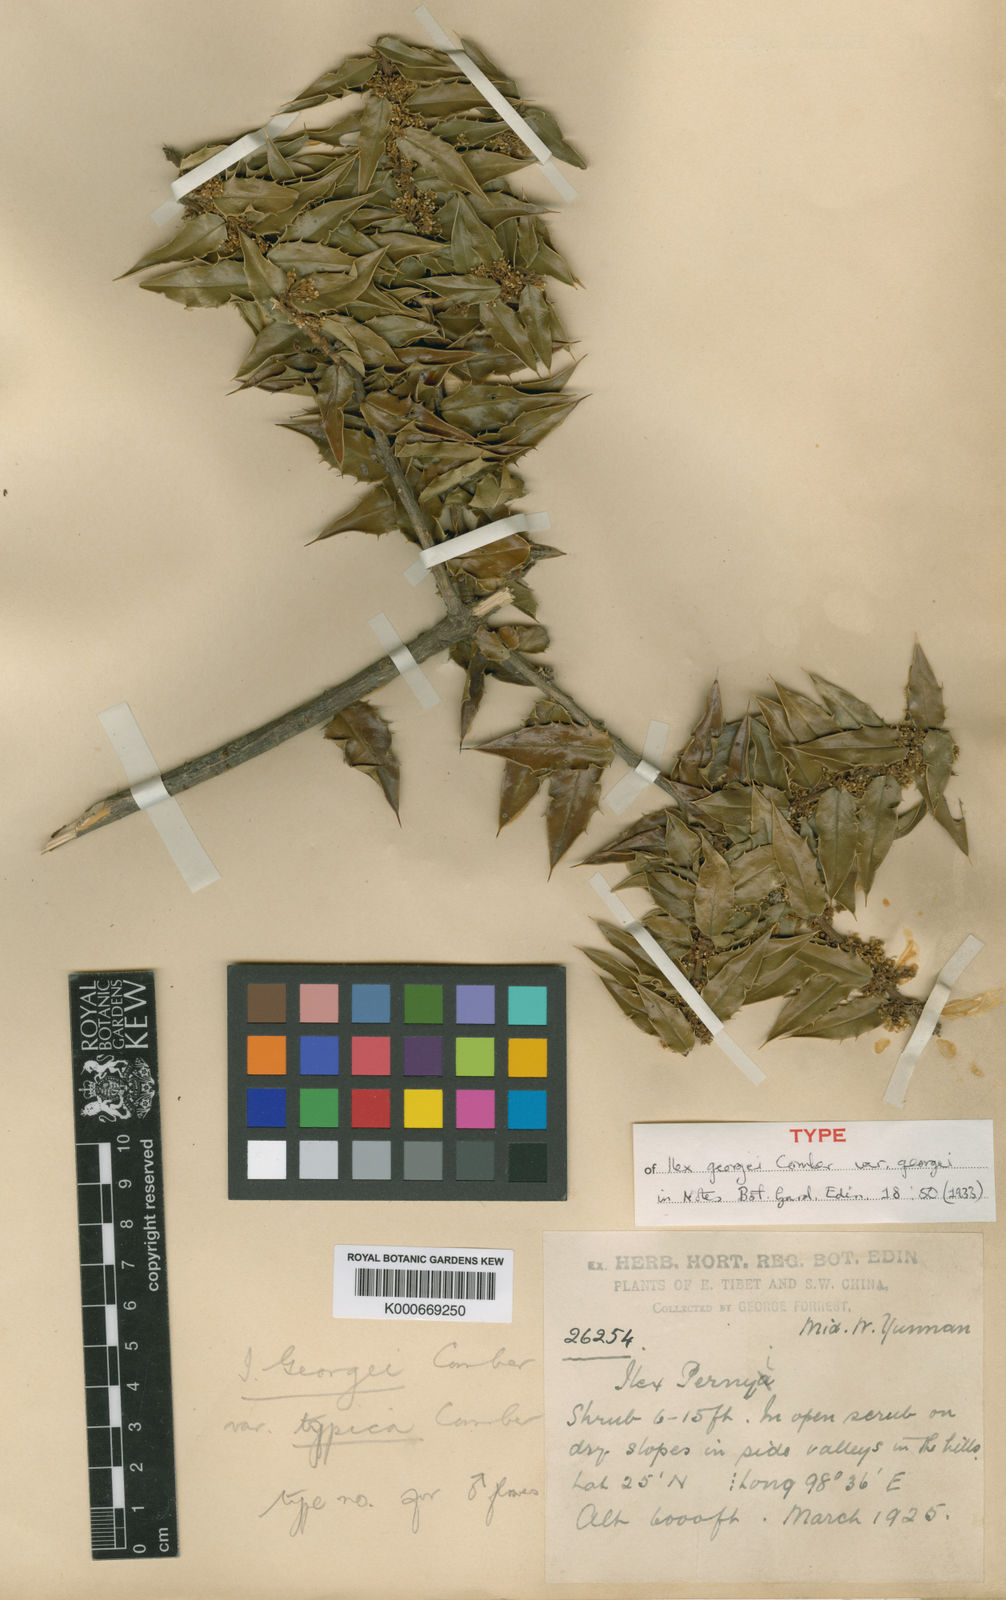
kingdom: Plantae
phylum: Tracheophyta
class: Magnoliopsida
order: Aquifoliales
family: Aquifoliaceae
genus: Ilex
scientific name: Ilex georgei
